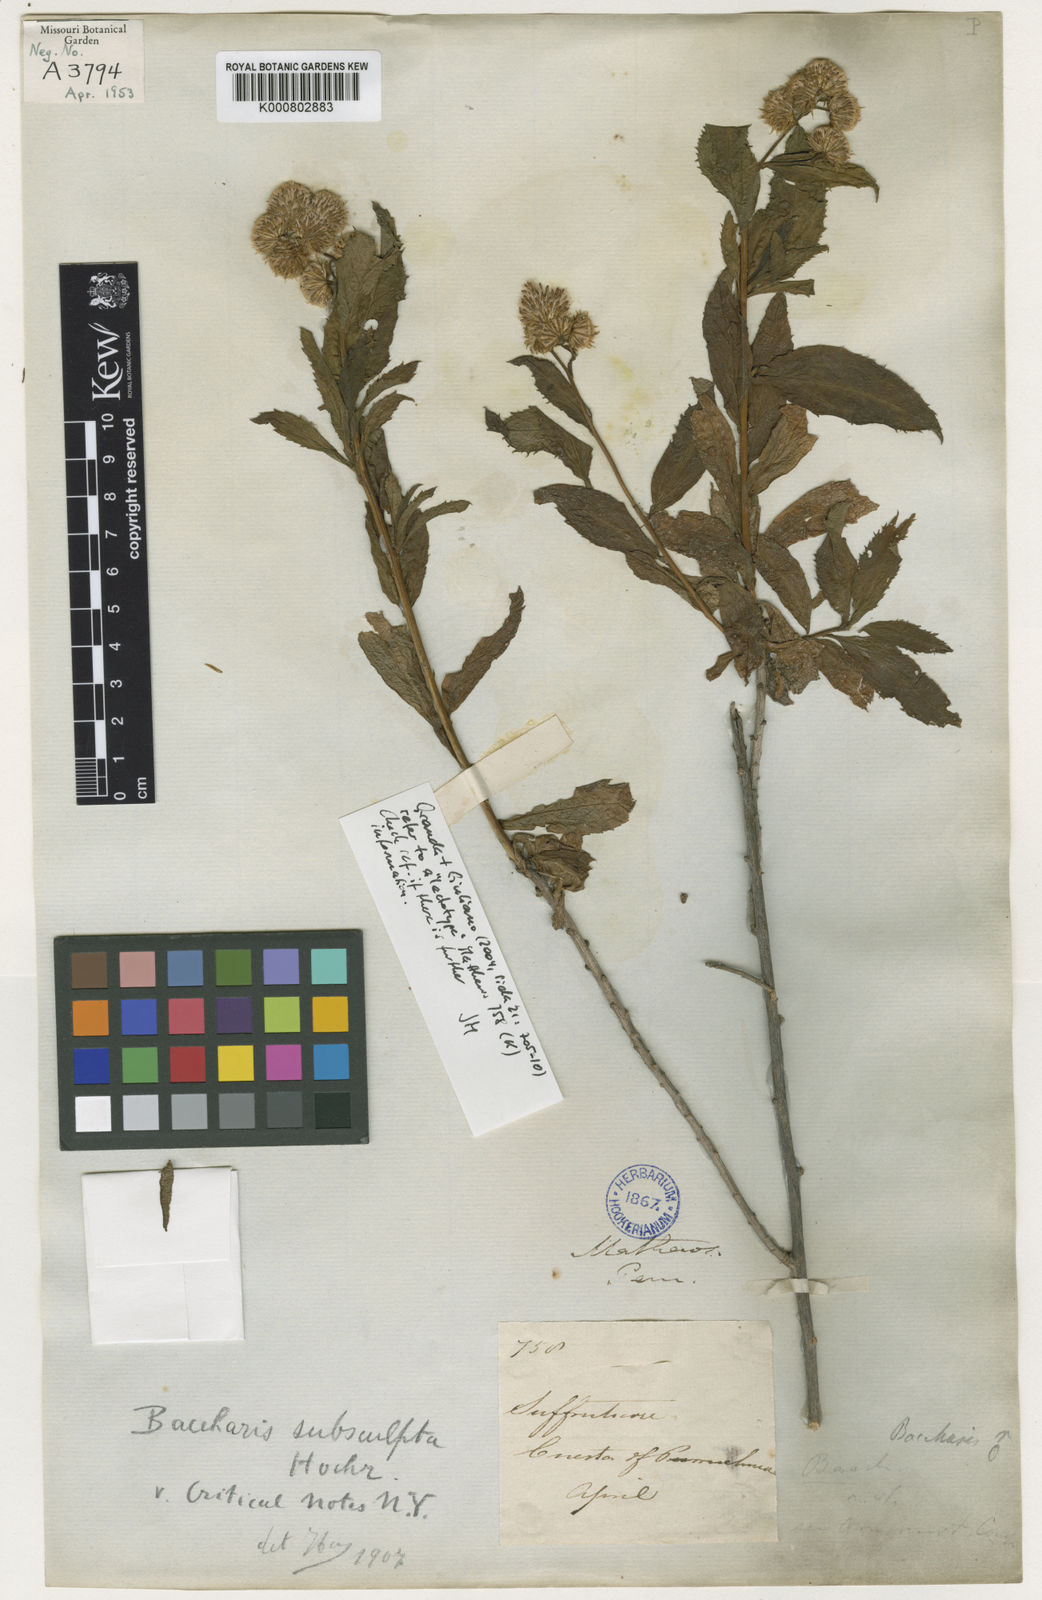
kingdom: Plantae
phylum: Tracheophyta
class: Magnoliopsida
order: Asterales
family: Asteraceae
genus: Baccharis
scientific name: Baccharis pulchella
